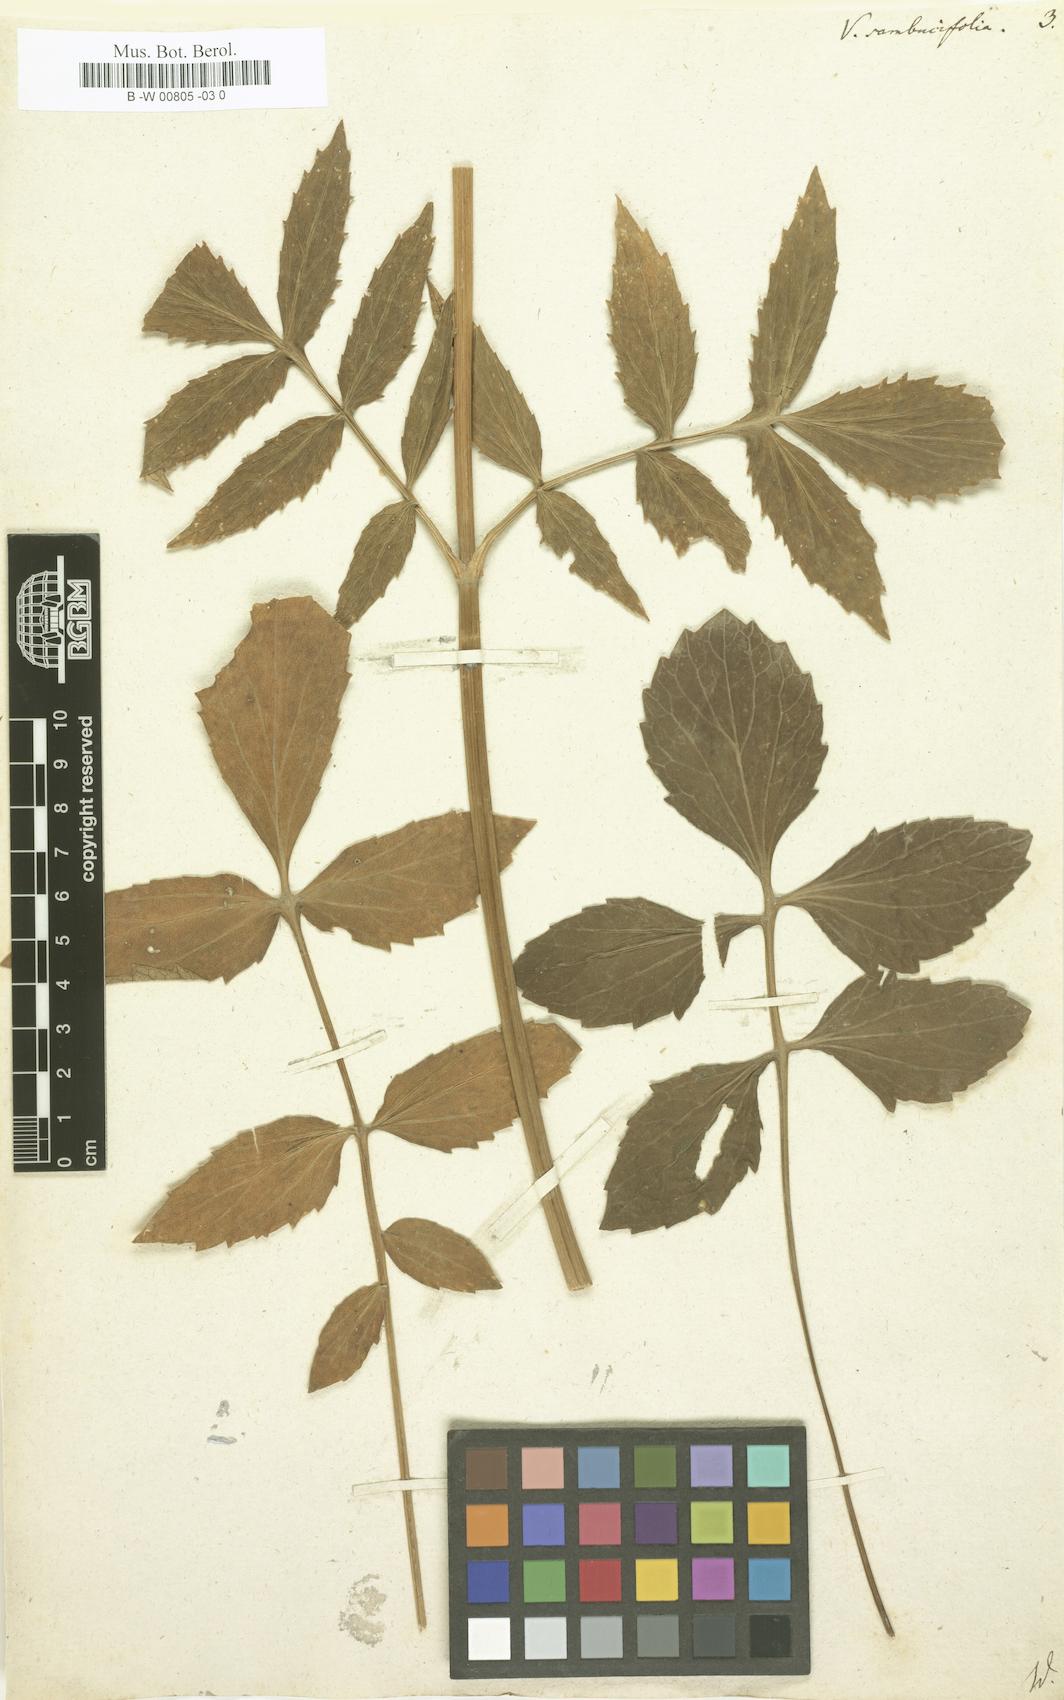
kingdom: Plantae
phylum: Tracheophyta
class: Magnoliopsida
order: Dipsacales
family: Caprifoliaceae
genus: Valeriana
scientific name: Valeriana sambucifolia
